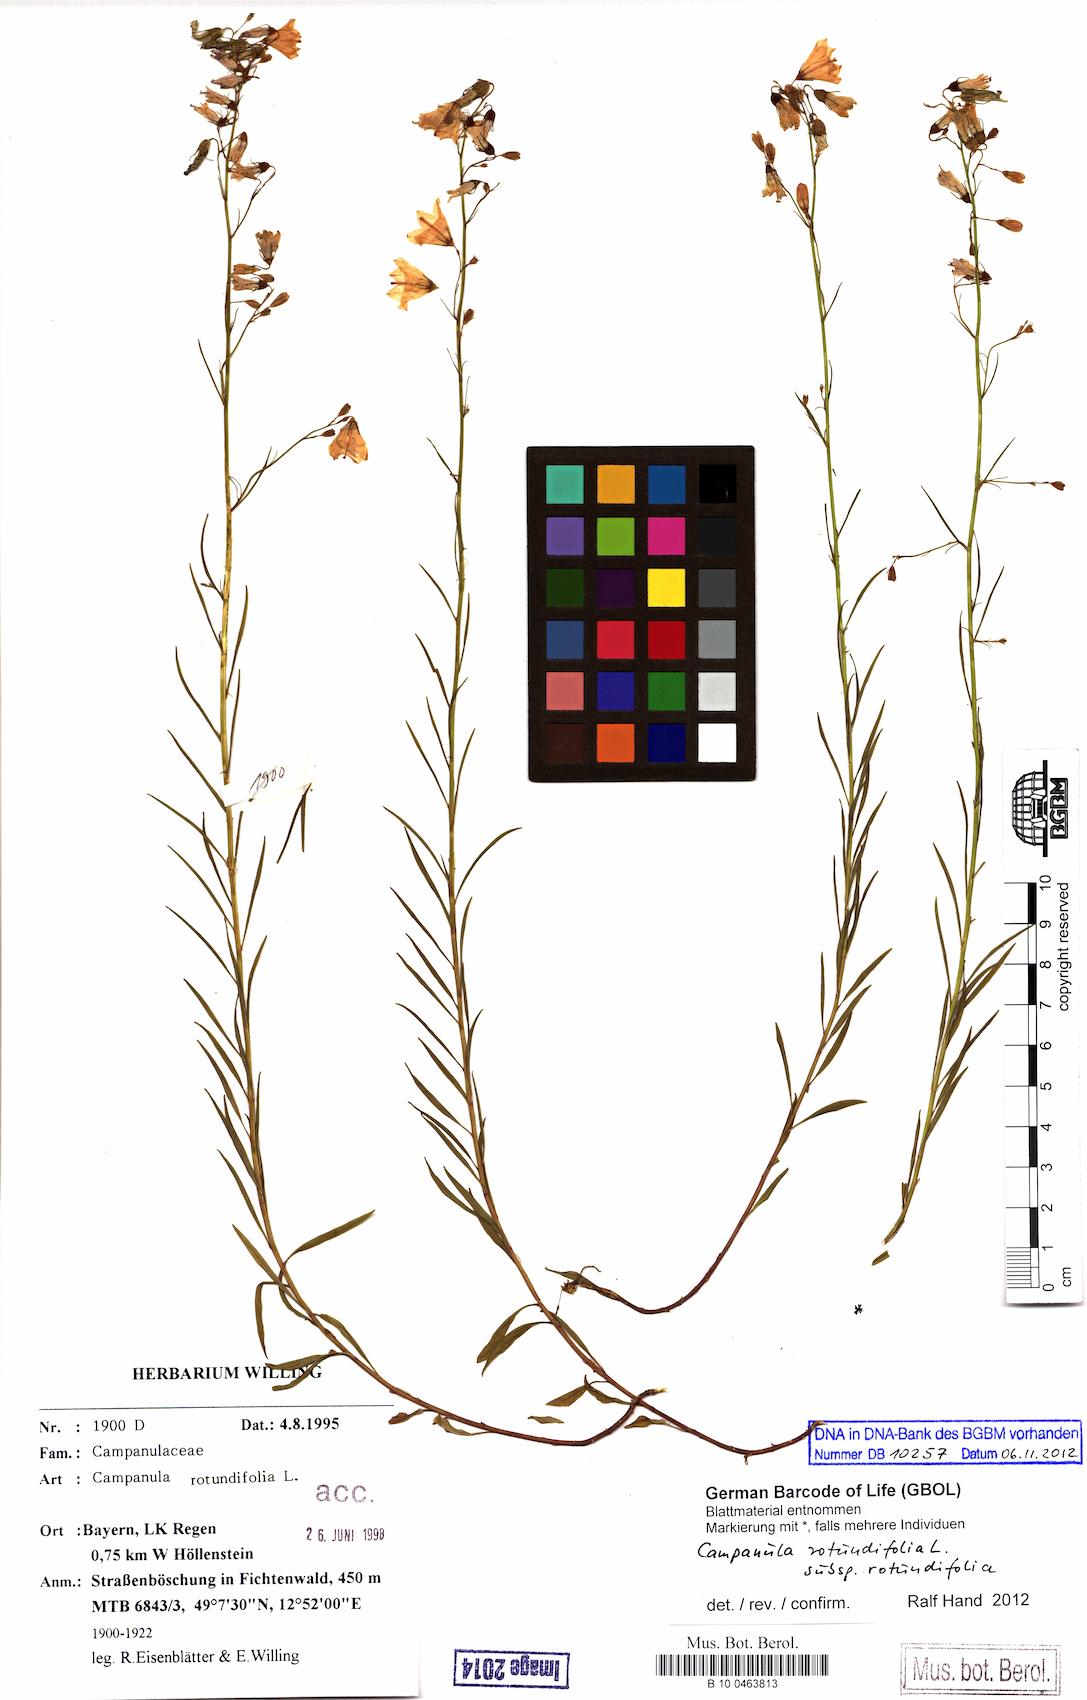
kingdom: Plantae
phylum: Tracheophyta
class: Magnoliopsida
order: Asterales
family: Campanulaceae
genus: Campanula
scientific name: Campanula rotundifolia
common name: Harebell
